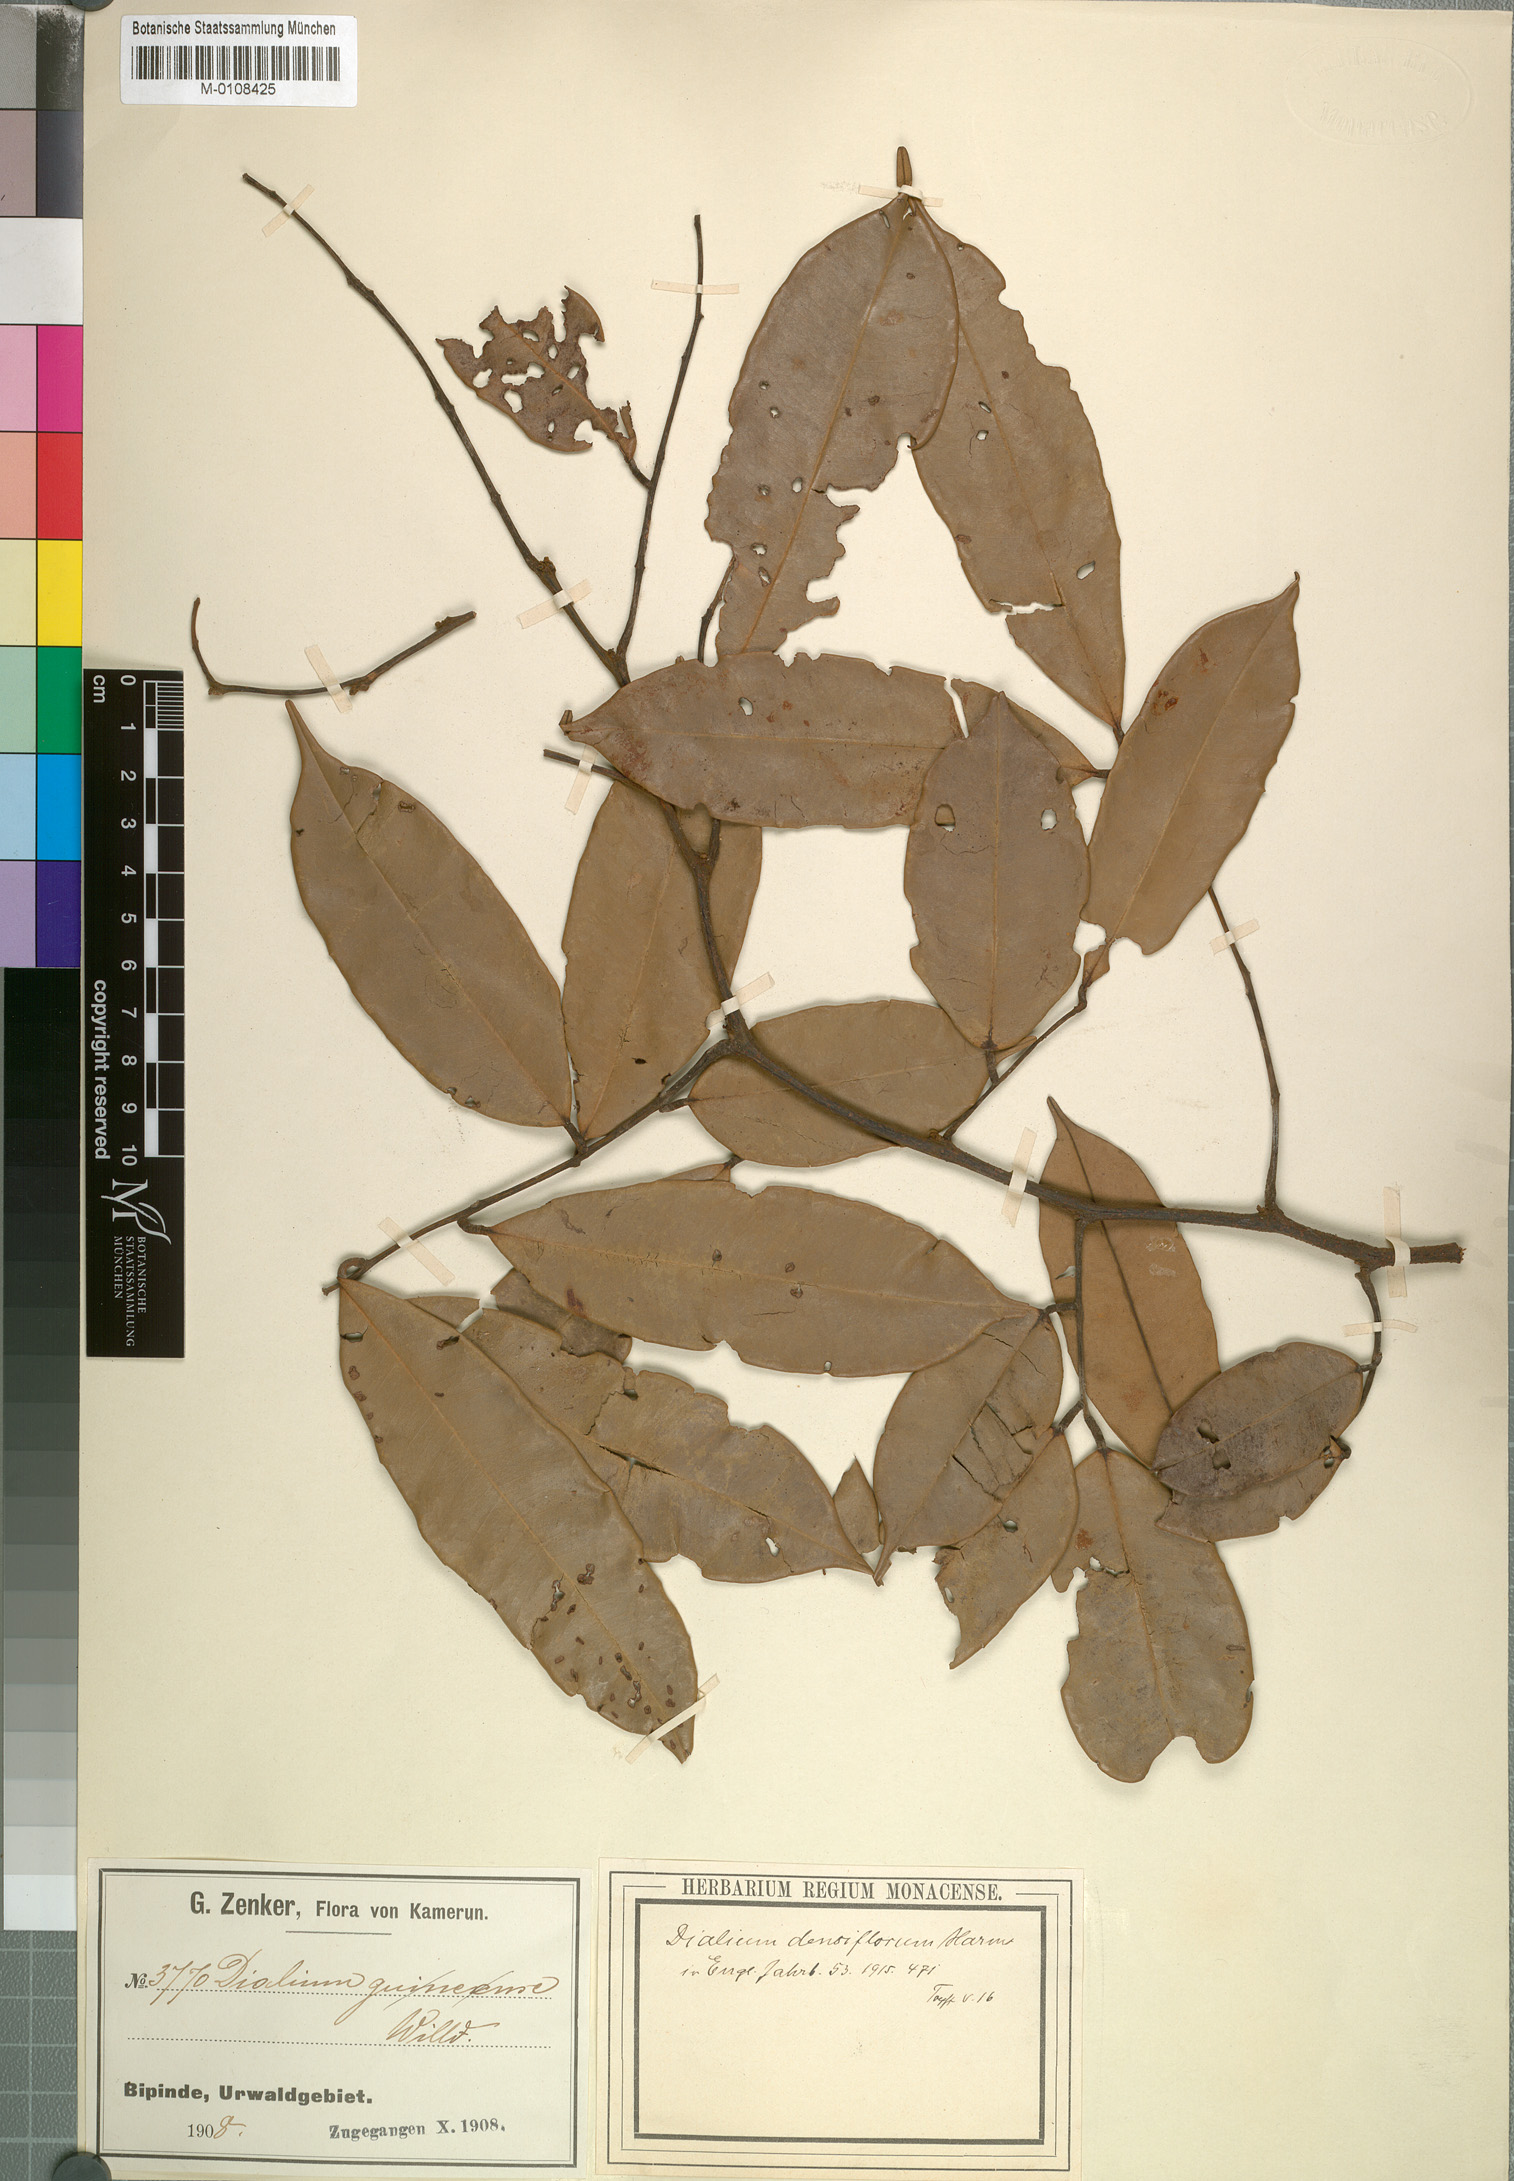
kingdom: Plantae
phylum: Tracheophyta
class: Magnoliopsida
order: Fabales
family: Fabaceae
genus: Dialium
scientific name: Dialium zenkeri
